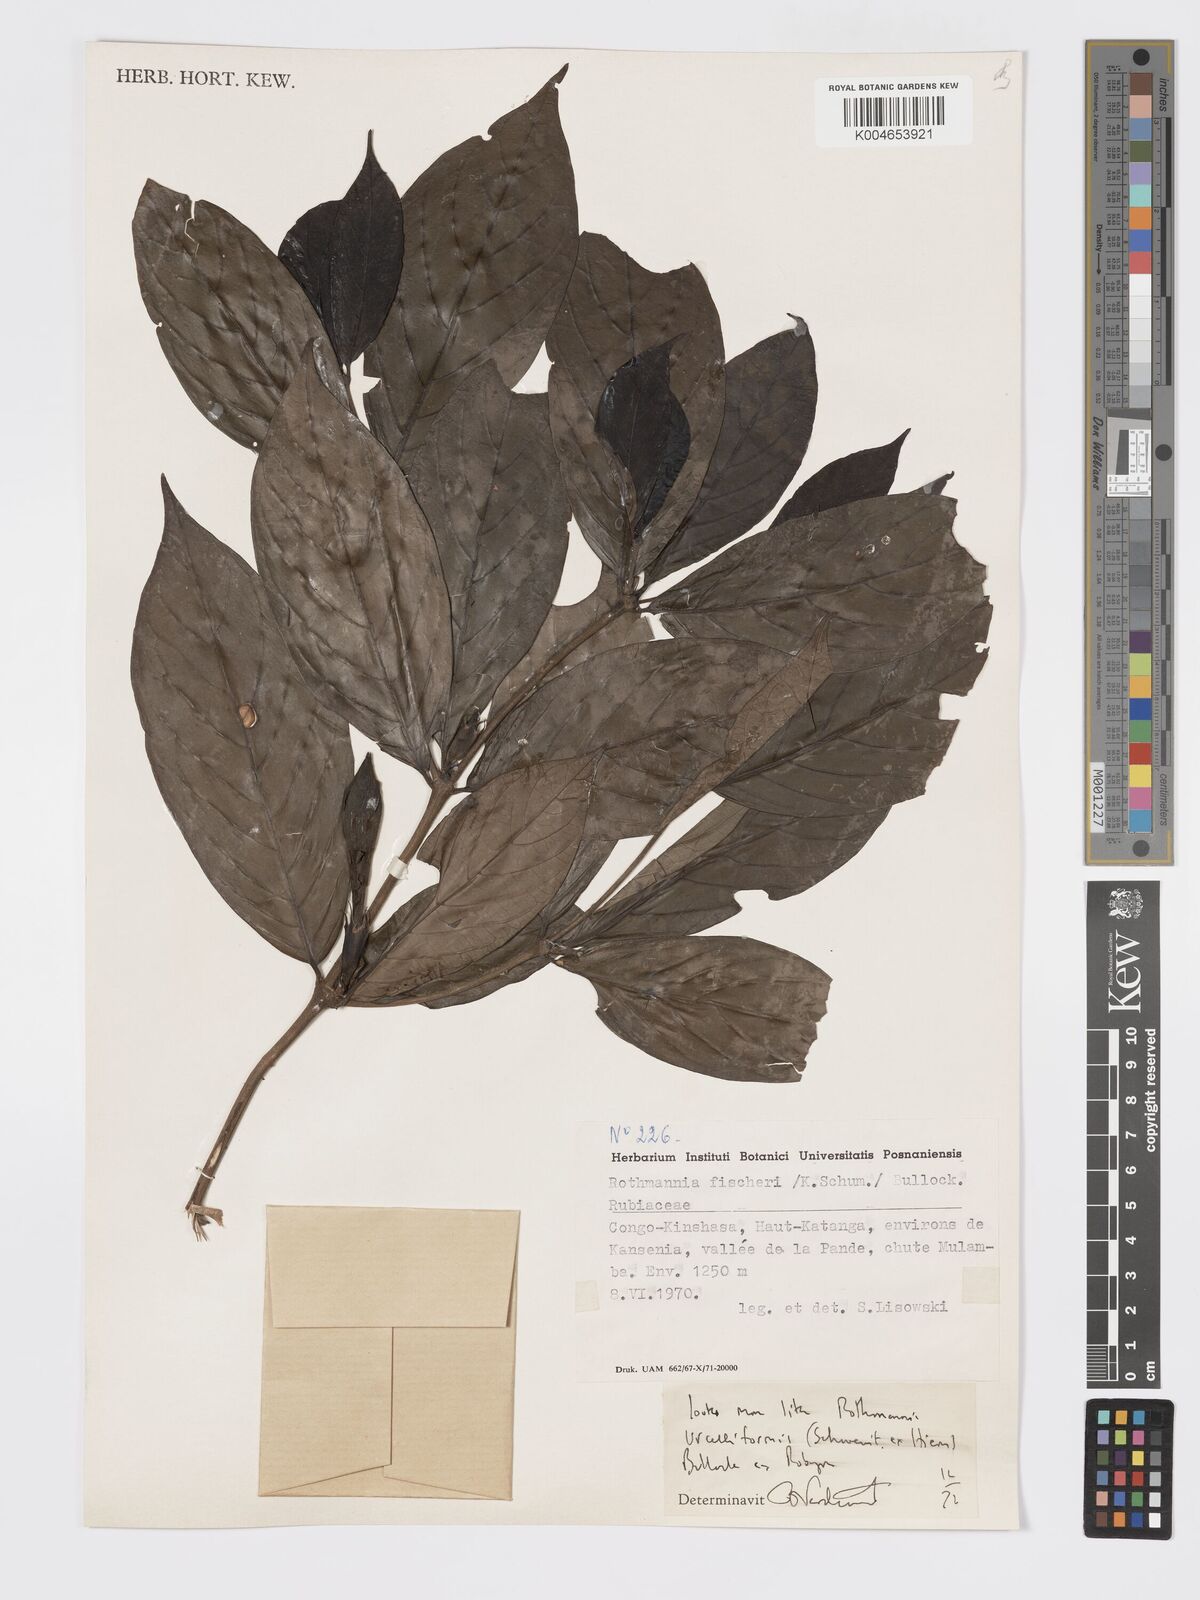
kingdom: Plantae
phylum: Tracheophyta
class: Magnoliopsida
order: Gentianales
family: Rubiaceae
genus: Rothmannia
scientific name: Rothmannia urcelliformis
